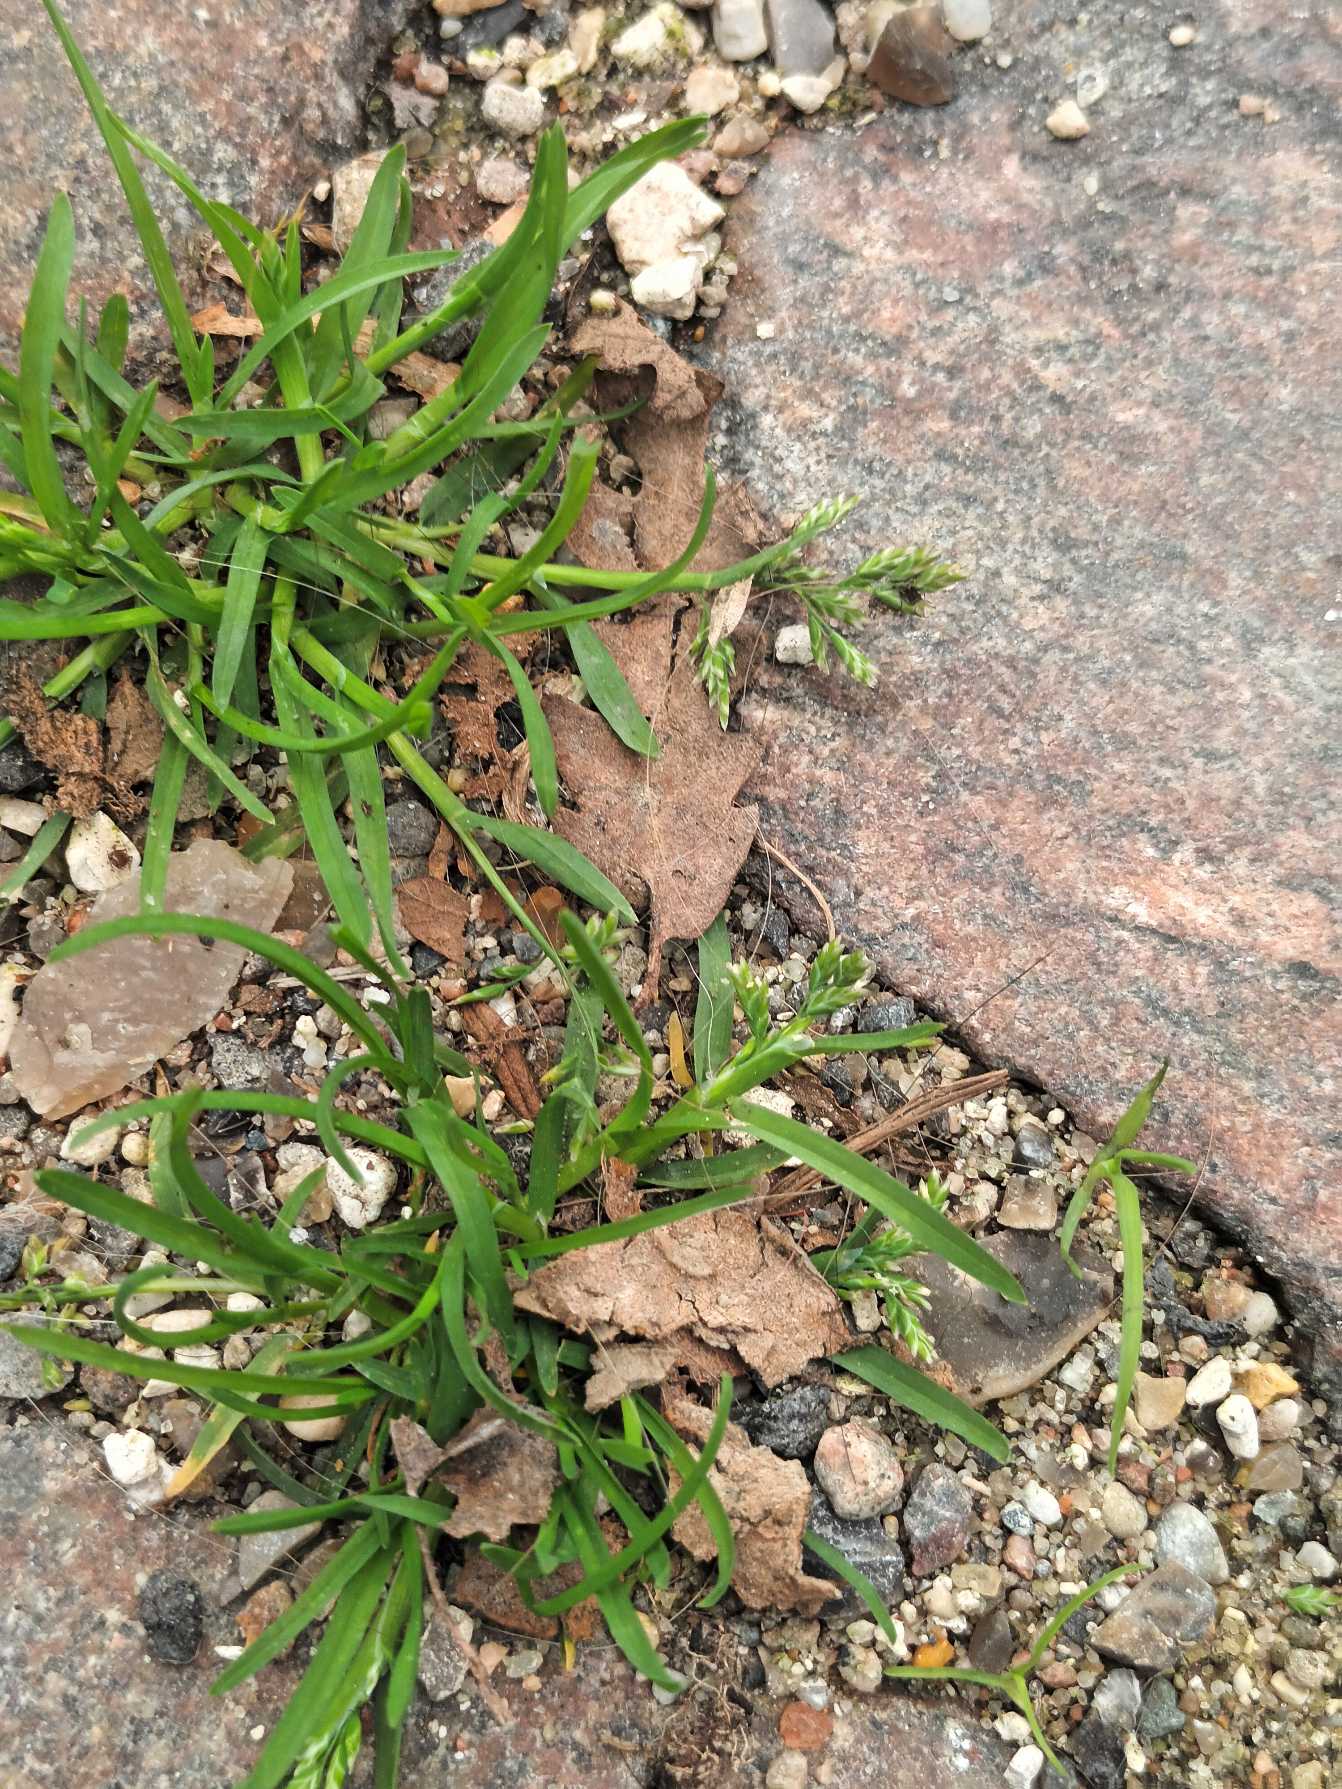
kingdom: Plantae
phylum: Tracheophyta
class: Liliopsida
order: Poales
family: Poaceae
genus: Poa
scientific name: Poa annua
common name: Enårig rapgræs
